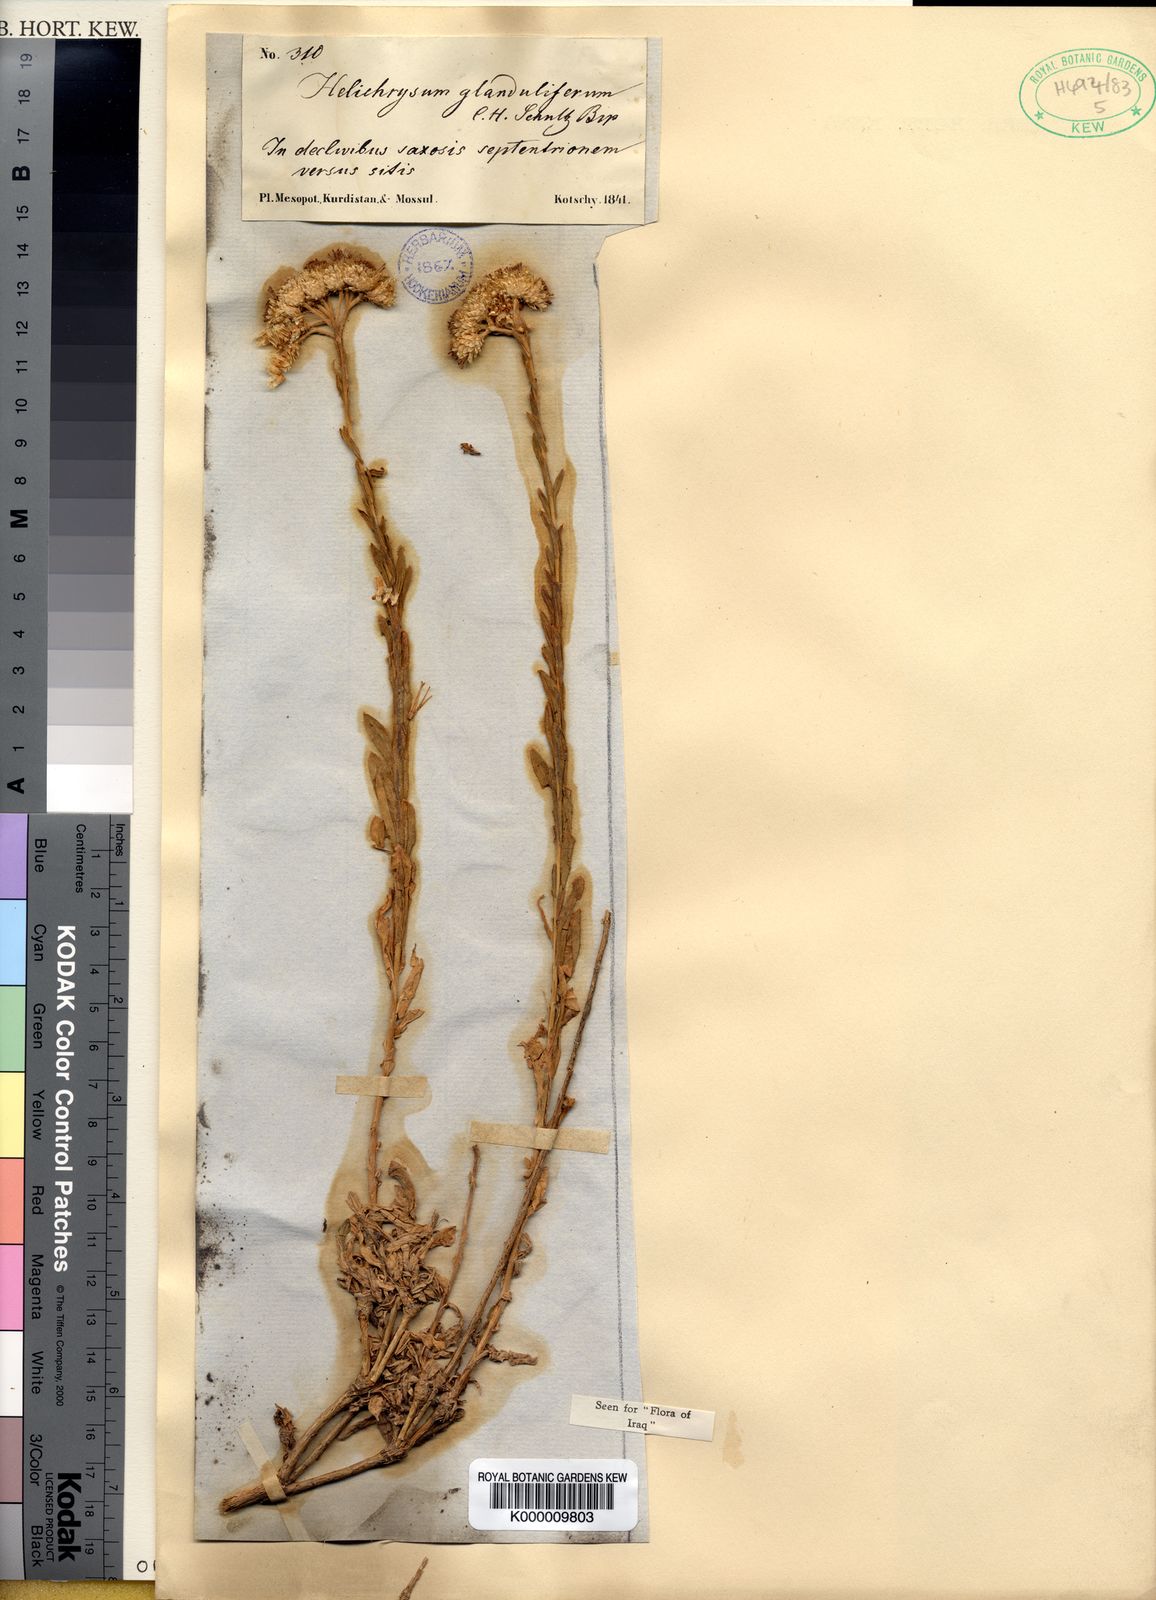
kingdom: Plantae
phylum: Tracheophyta
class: Magnoliopsida
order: Asterales
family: Asteraceae
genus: Helichrysum
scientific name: Helichrysum armenium
